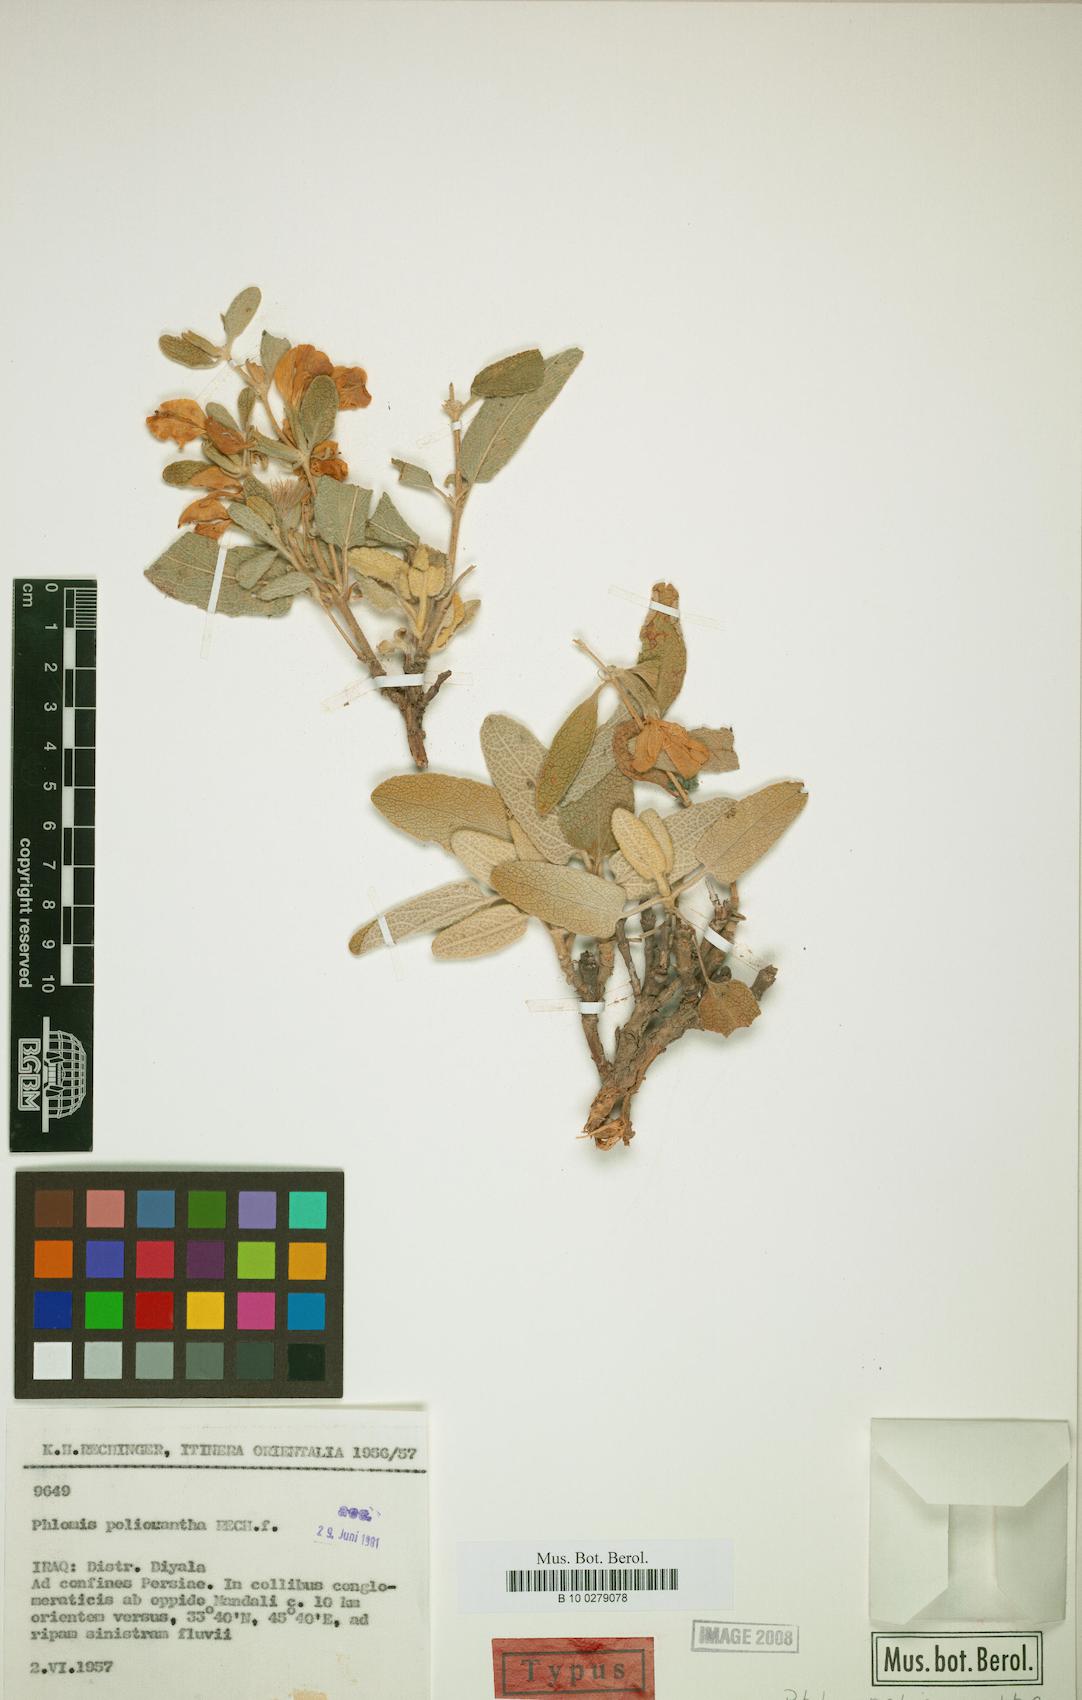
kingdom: Plantae
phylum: Tracheophyta
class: Magnoliopsida
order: Lamiales
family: Lamiaceae
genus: Phlomis
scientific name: Phlomis polioxantha
